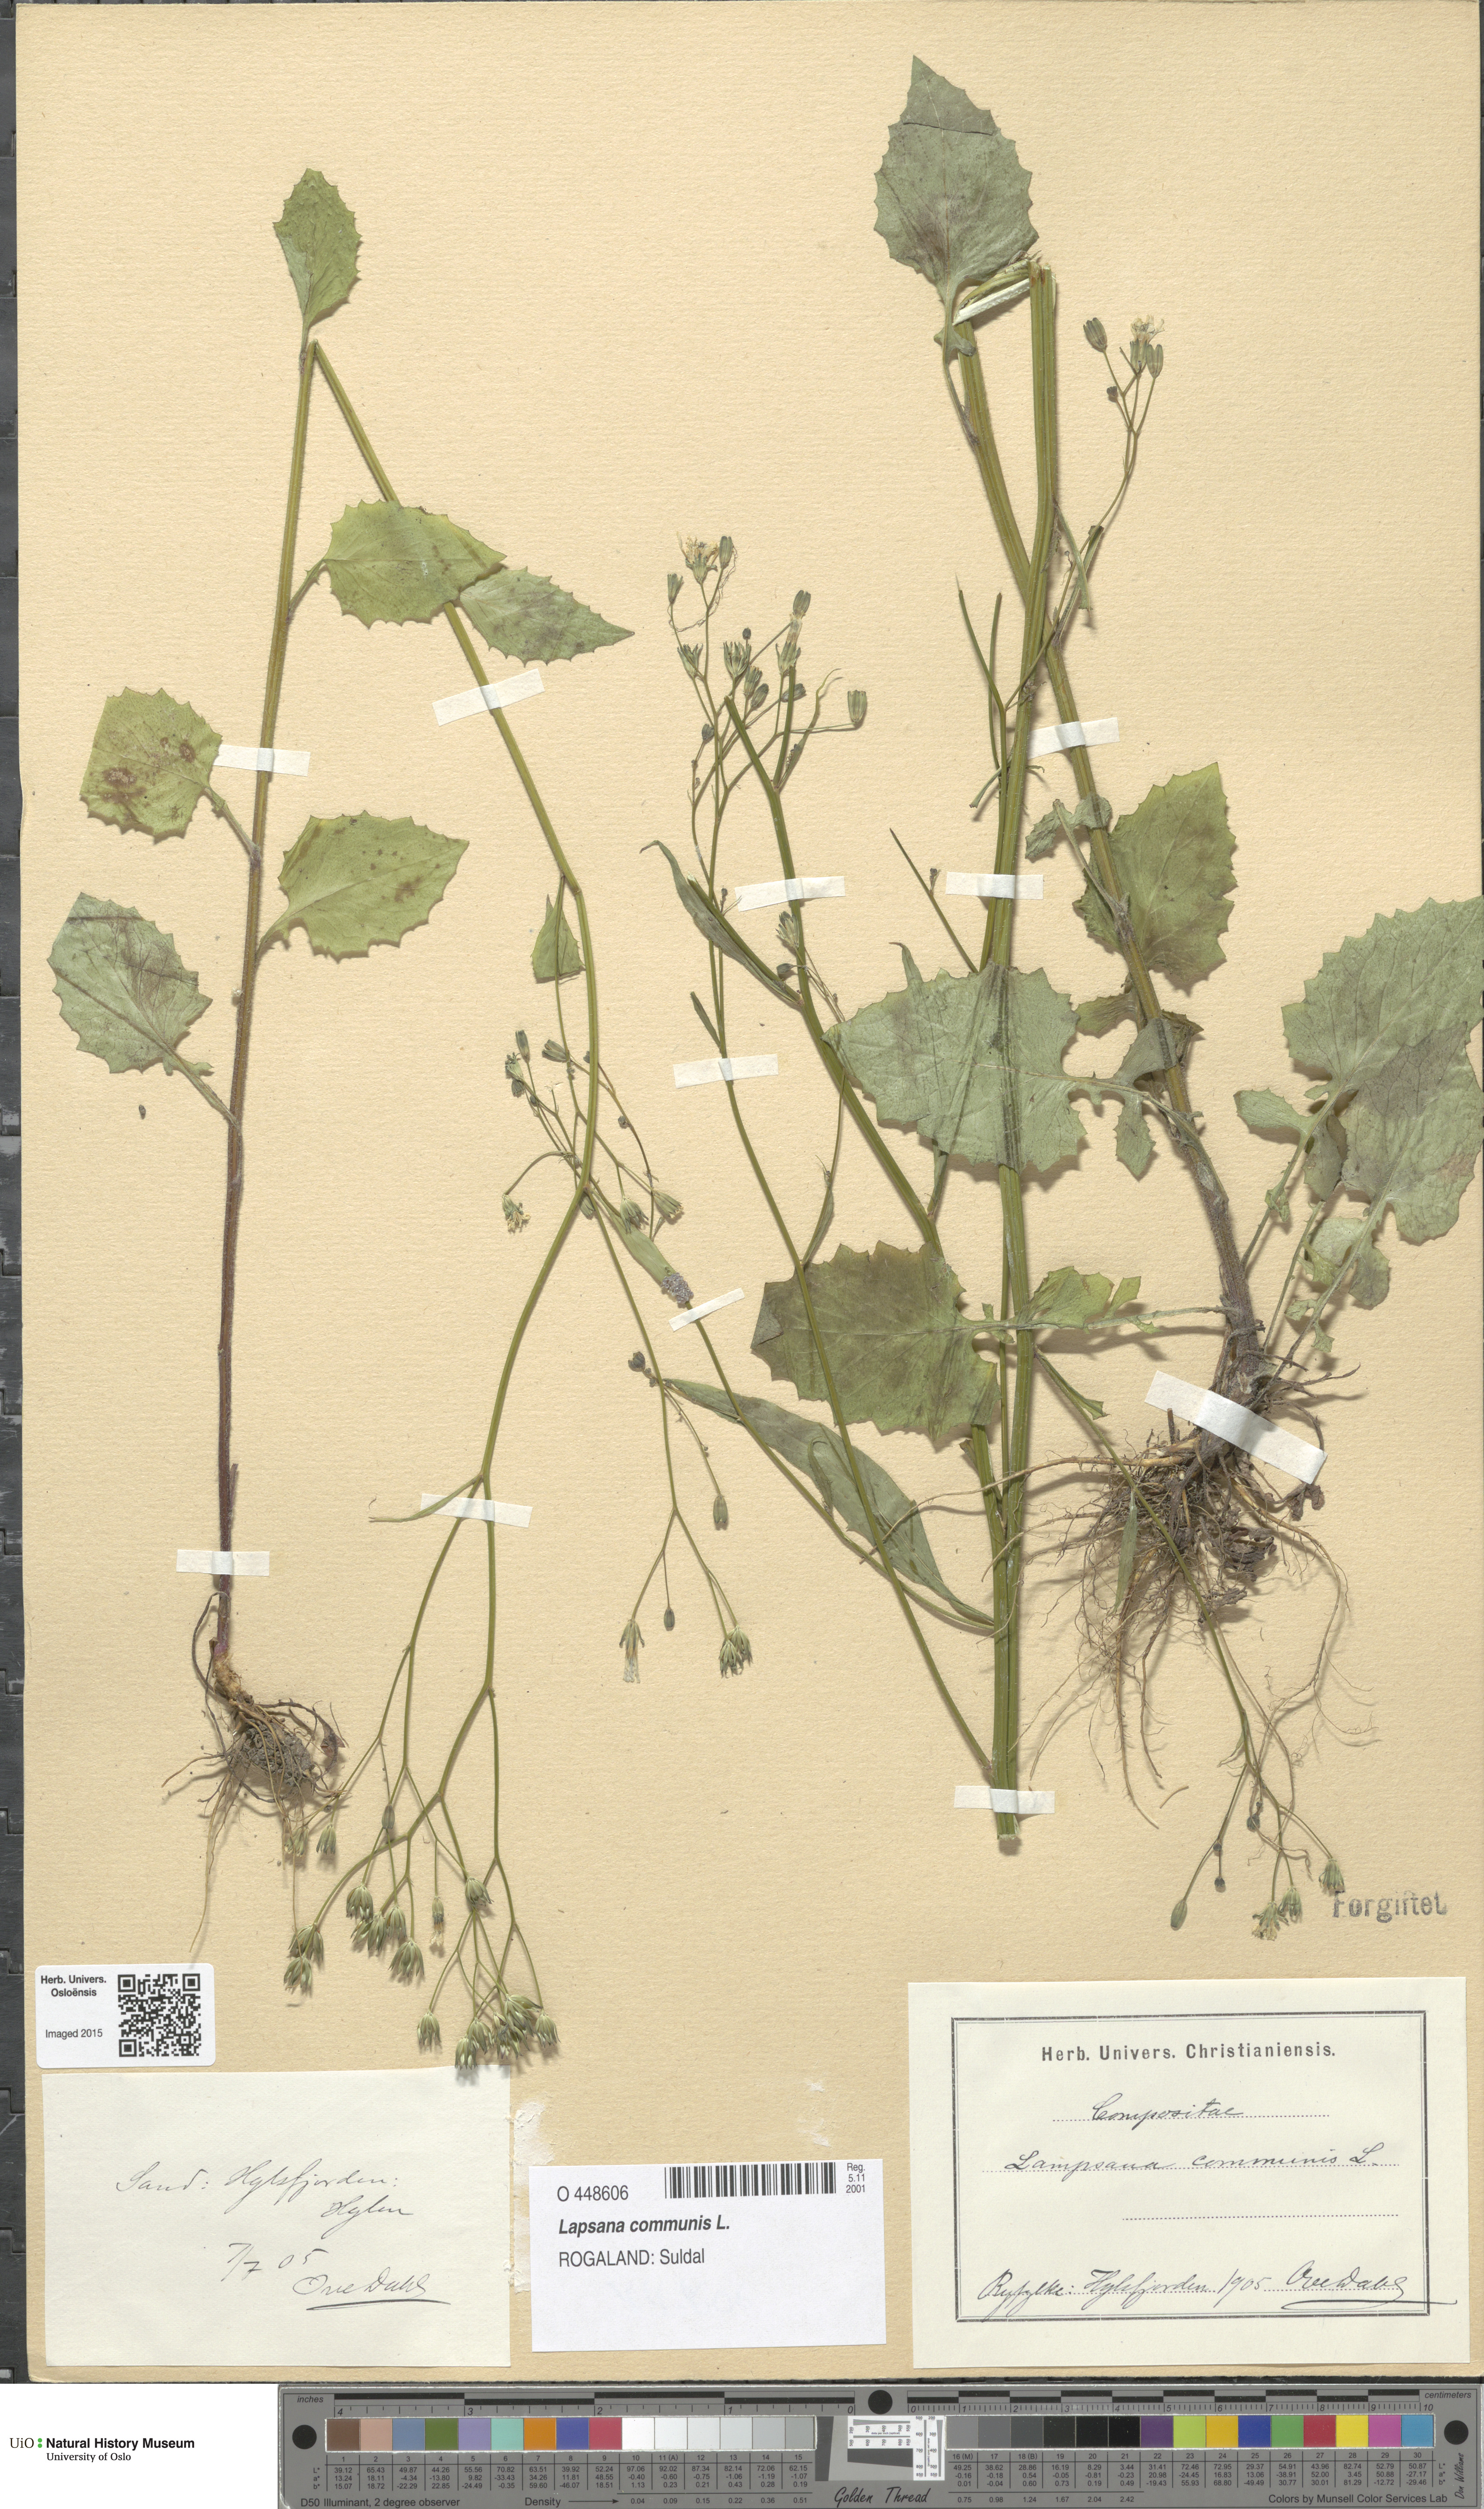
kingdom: Plantae
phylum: Tracheophyta
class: Magnoliopsida
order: Asterales
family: Asteraceae
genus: Lapsana
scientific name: Lapsana communis
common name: Nipplewort
